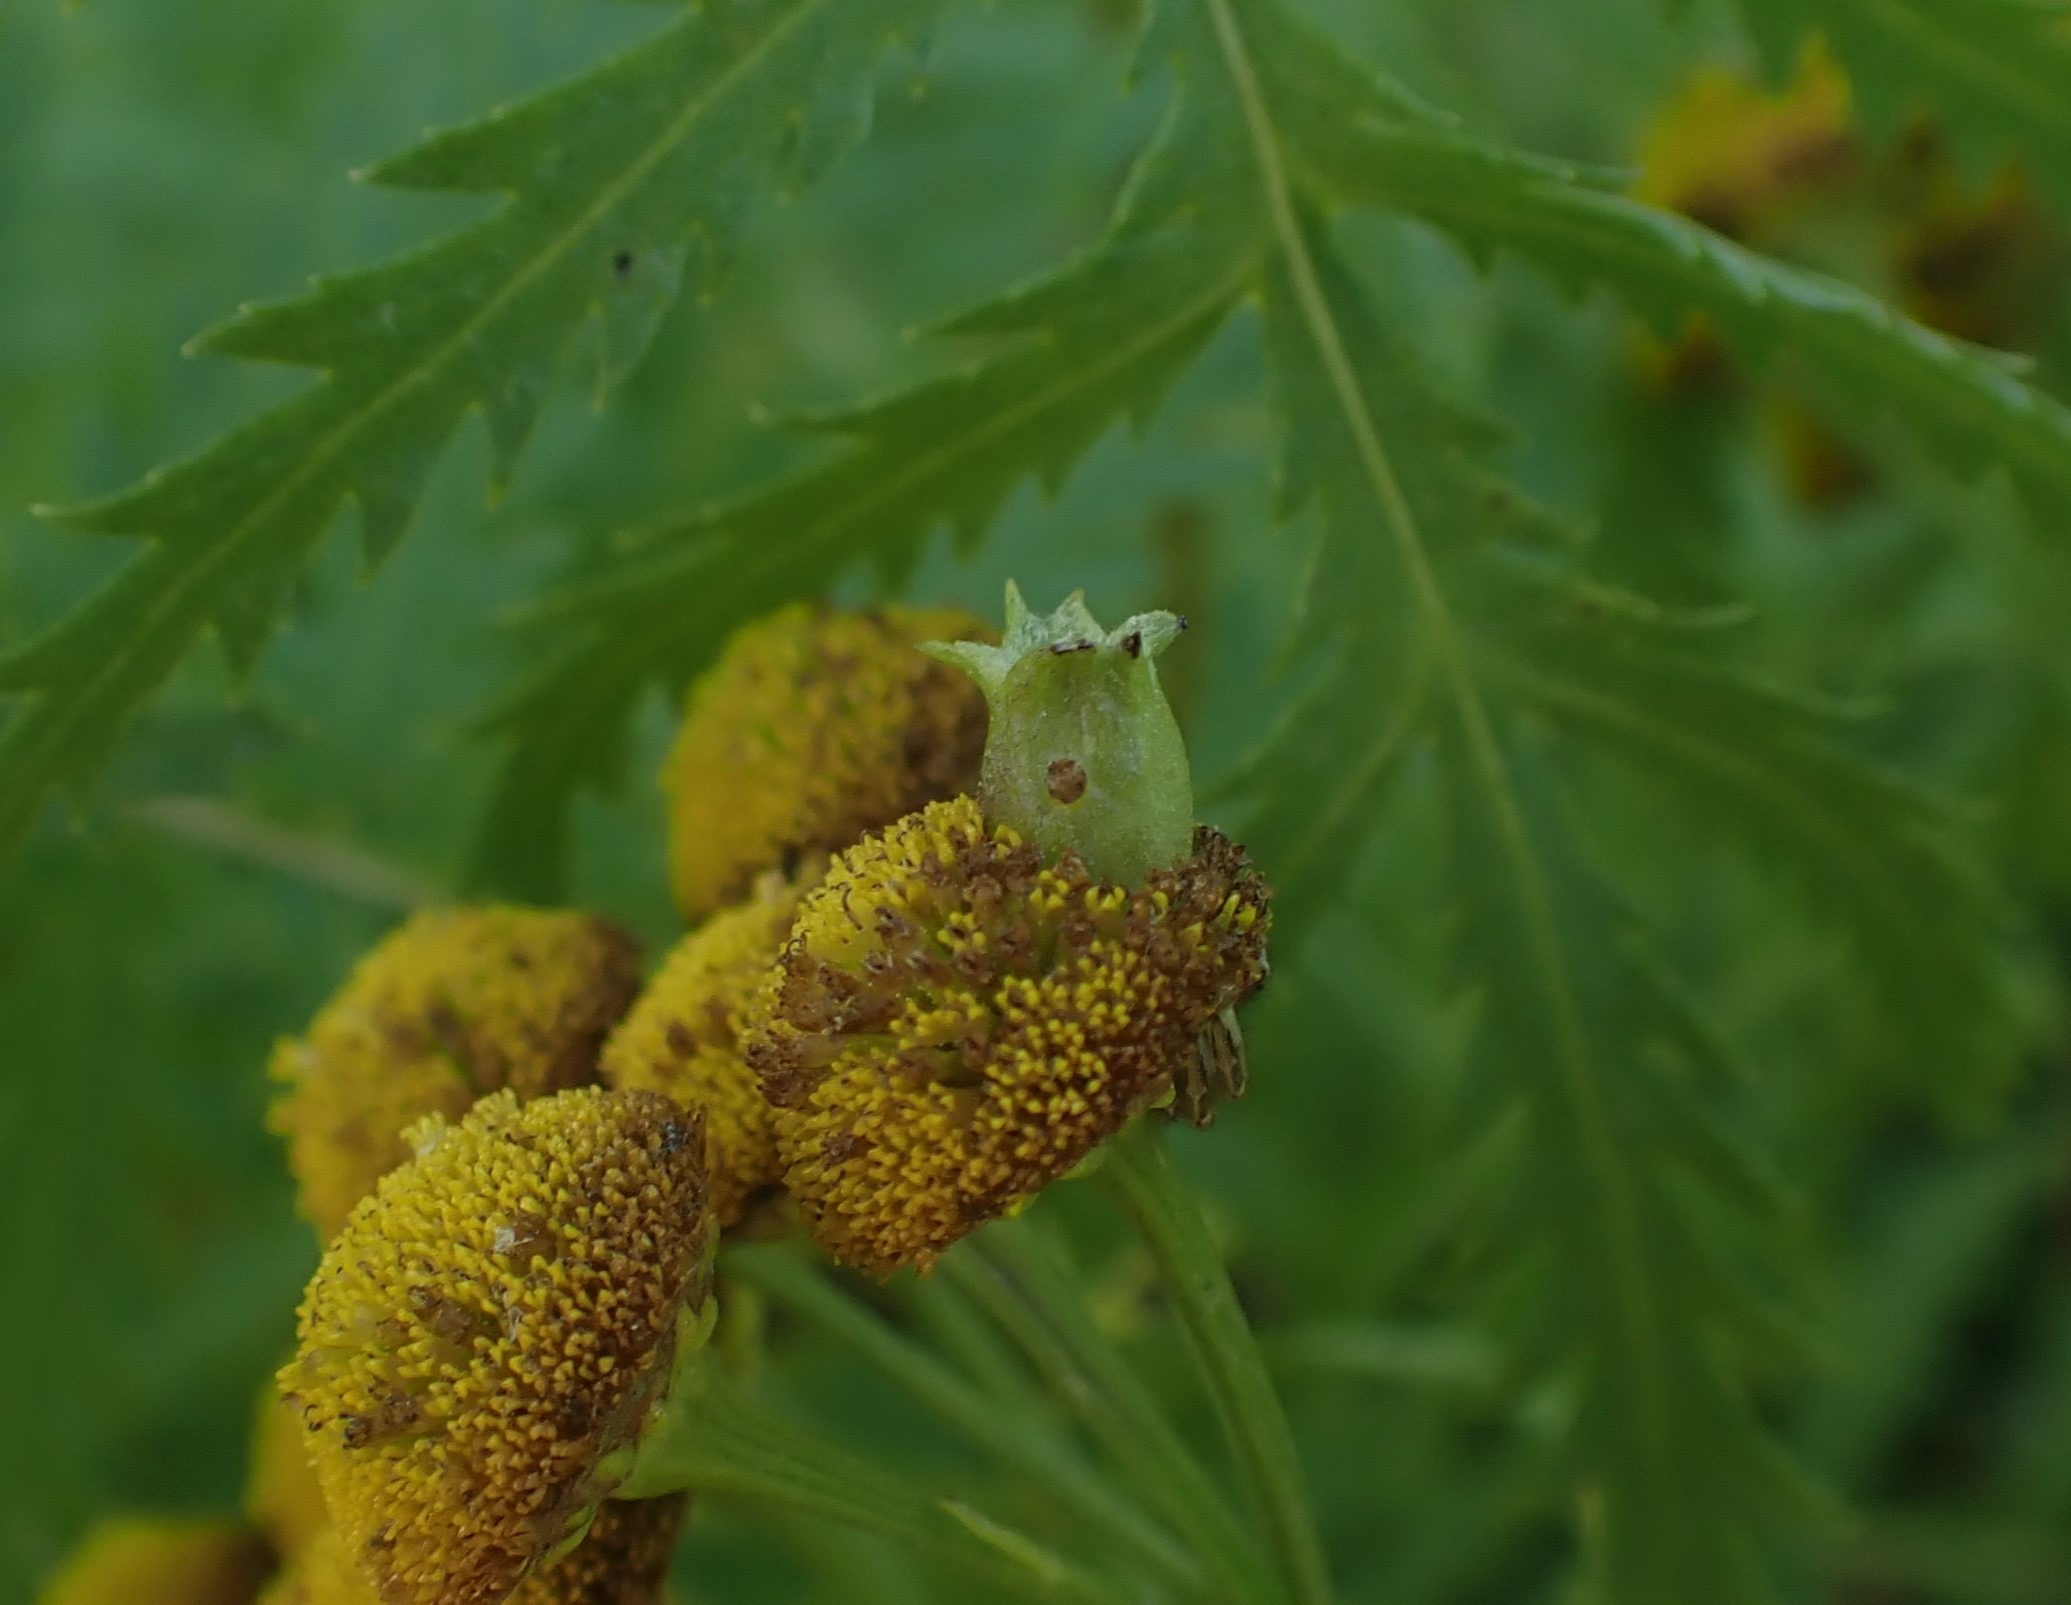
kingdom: Animalia
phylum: Arthropoda
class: Insecta
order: Diptera
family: Cecidomyiidae
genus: Rhopalomyia
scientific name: Rhopalomyia tanaceticolus
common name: Rejnfangalmyg
